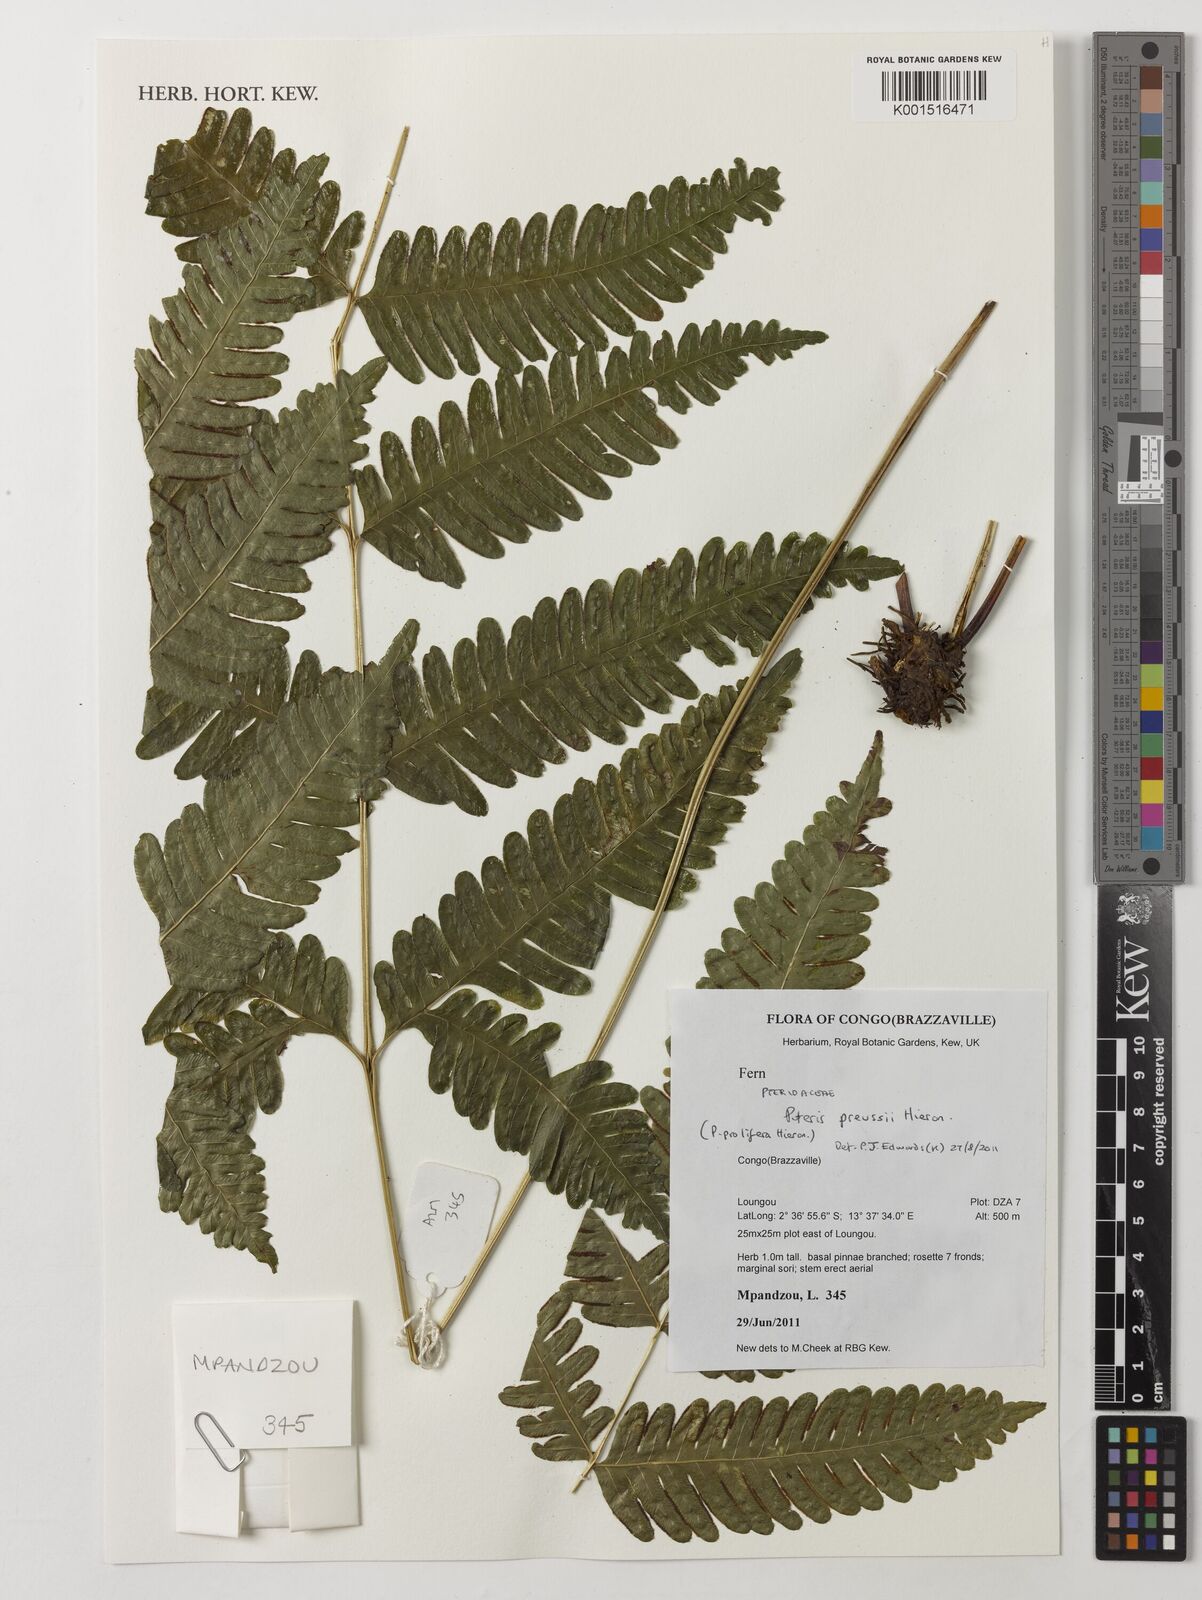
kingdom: Plantae
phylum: Tracheophyta
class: Polypodiopsida
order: Polypodiales
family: Pteridaceae
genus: Pteris
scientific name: Pteris preussii
